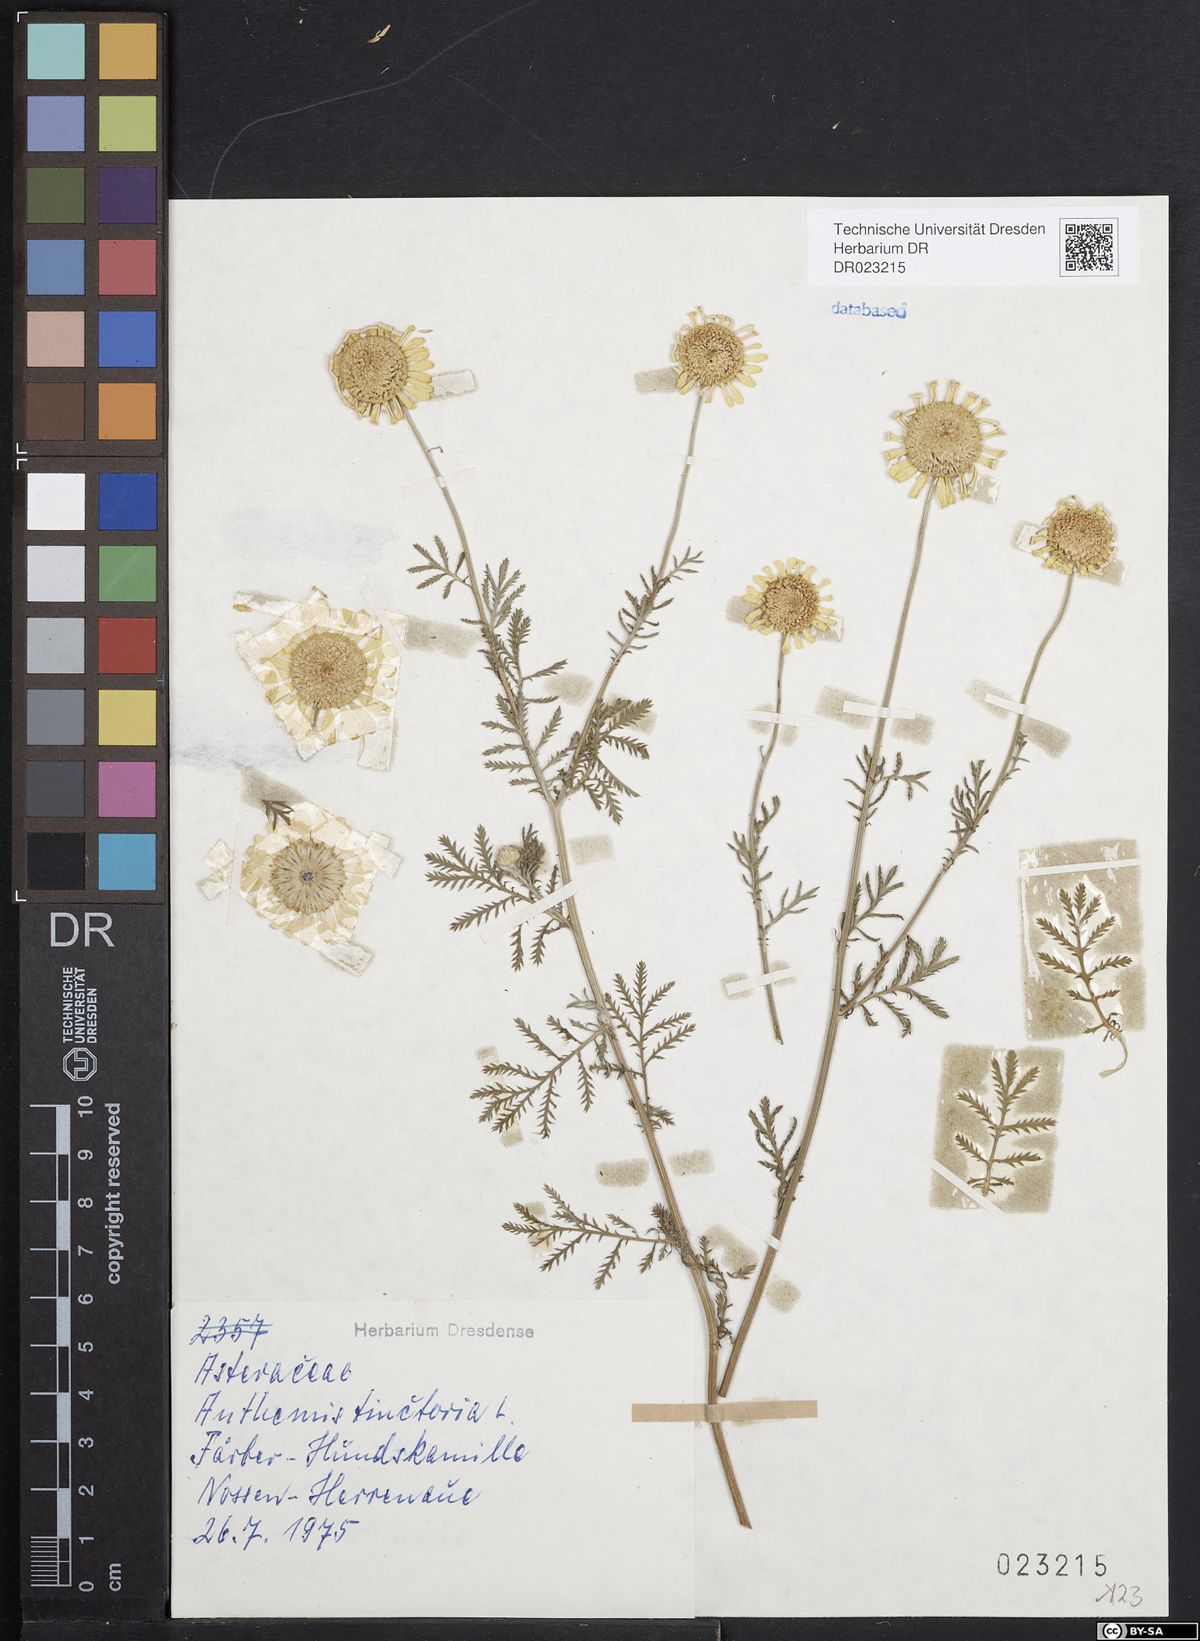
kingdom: Plantae
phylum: Tracheophyta
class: Magnoliopsida
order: Asterales
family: Asteraceae
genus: Cota
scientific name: Cota tinctoria
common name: Golden chamomile
